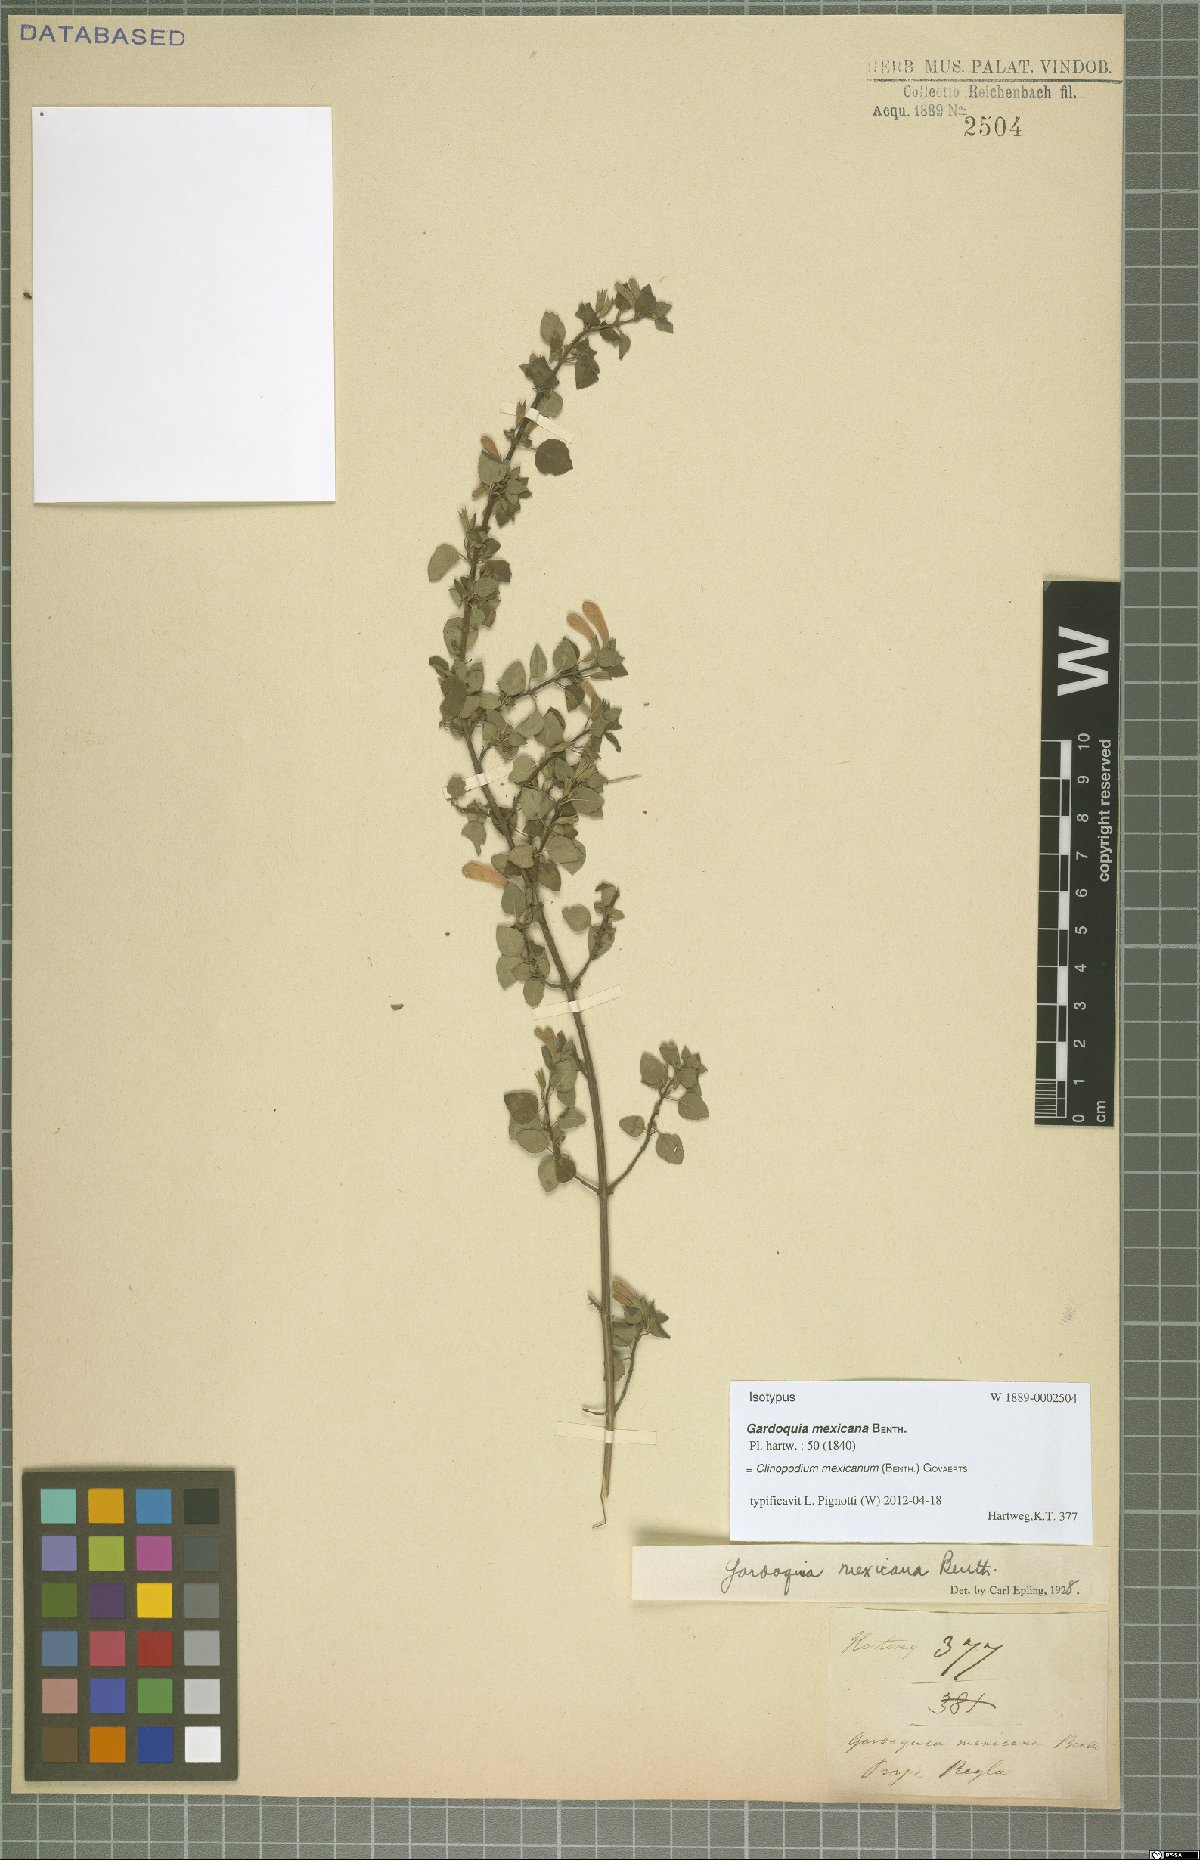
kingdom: Plantae
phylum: Tracheophyta
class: Magnoliopsida
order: Lamiales
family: Lamiaceae
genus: Clinopodium
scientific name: Clinopodium mexicanum
